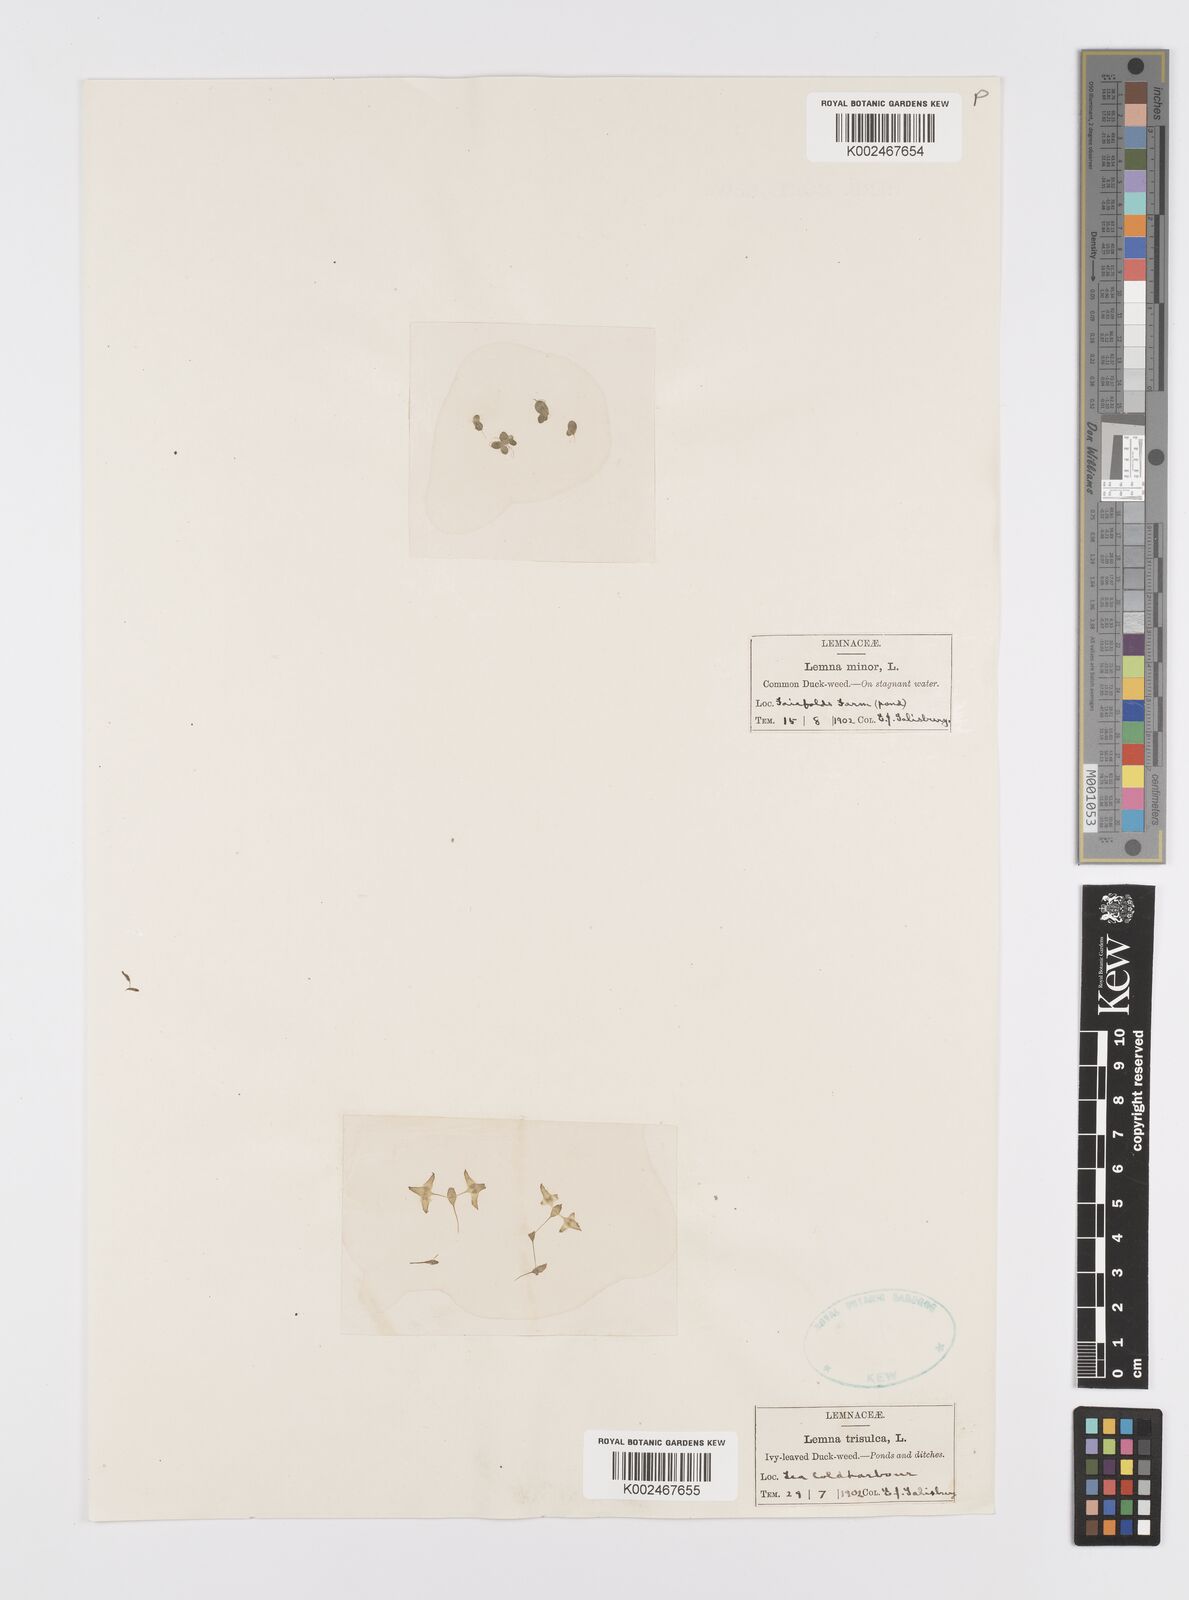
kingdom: Plantae
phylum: Tracheophyta
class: Liliopsida
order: Alismatales
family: Araceae
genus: Lemna
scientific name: Lemna trisulca
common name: Ivy-leaved duckweed
